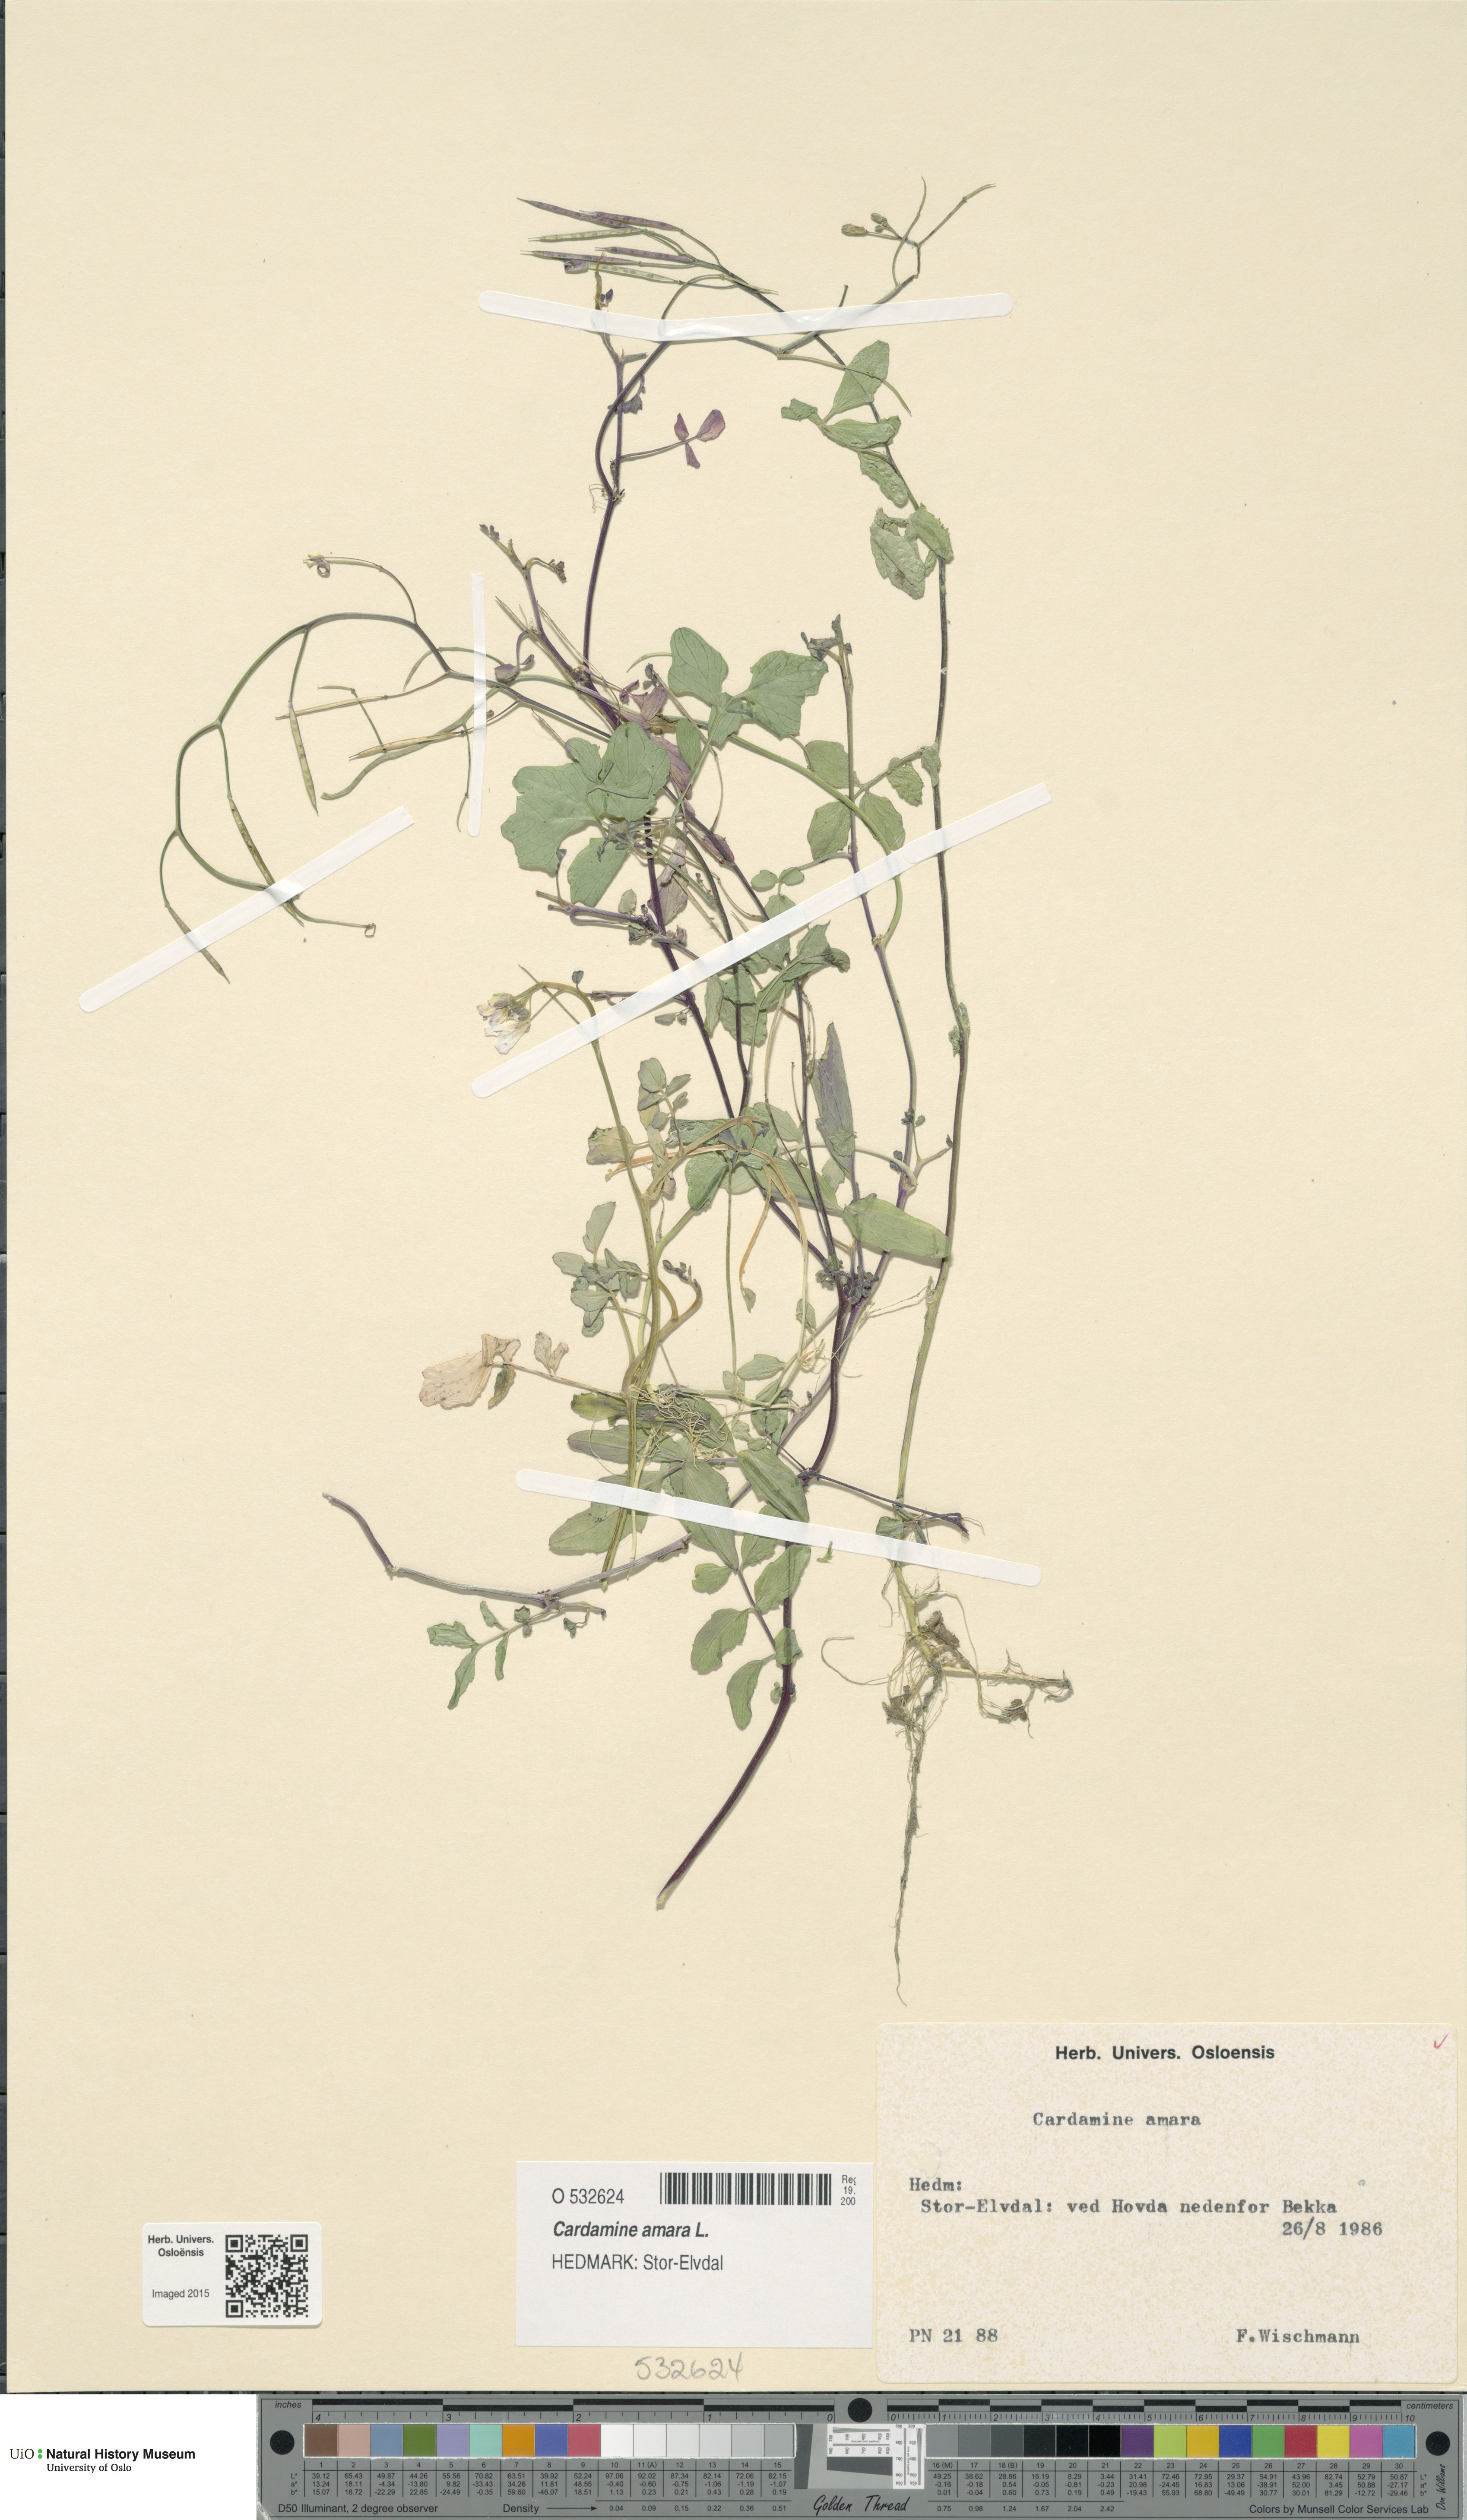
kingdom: Plantae
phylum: Tracheophyta
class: Magnoliopsida
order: Brassicales
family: Brassicaceae
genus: Cardamine
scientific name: Cardamine amara
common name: Large bitter-cress
